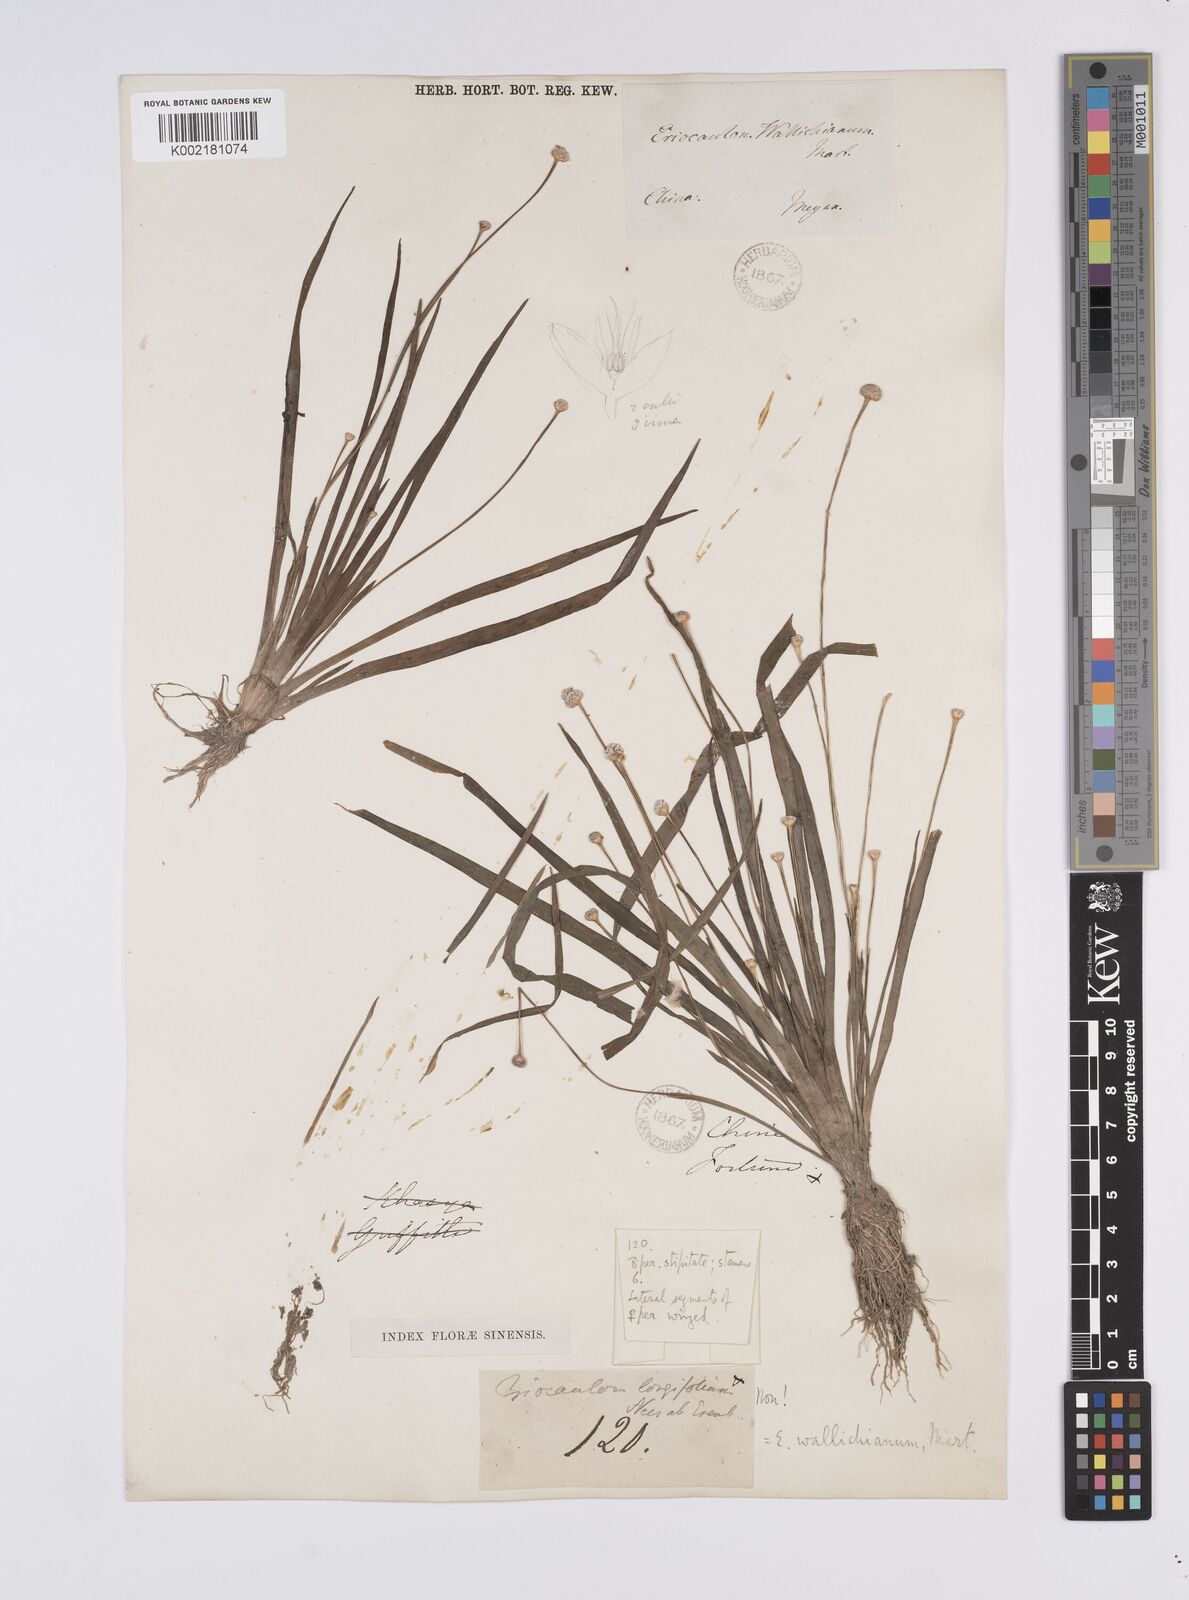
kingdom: Plantae
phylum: Tracheophyta
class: Liliopsida
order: Poales
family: Eriocaulaceae
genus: Eriocaulon
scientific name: Eriocaulon sexangulare
